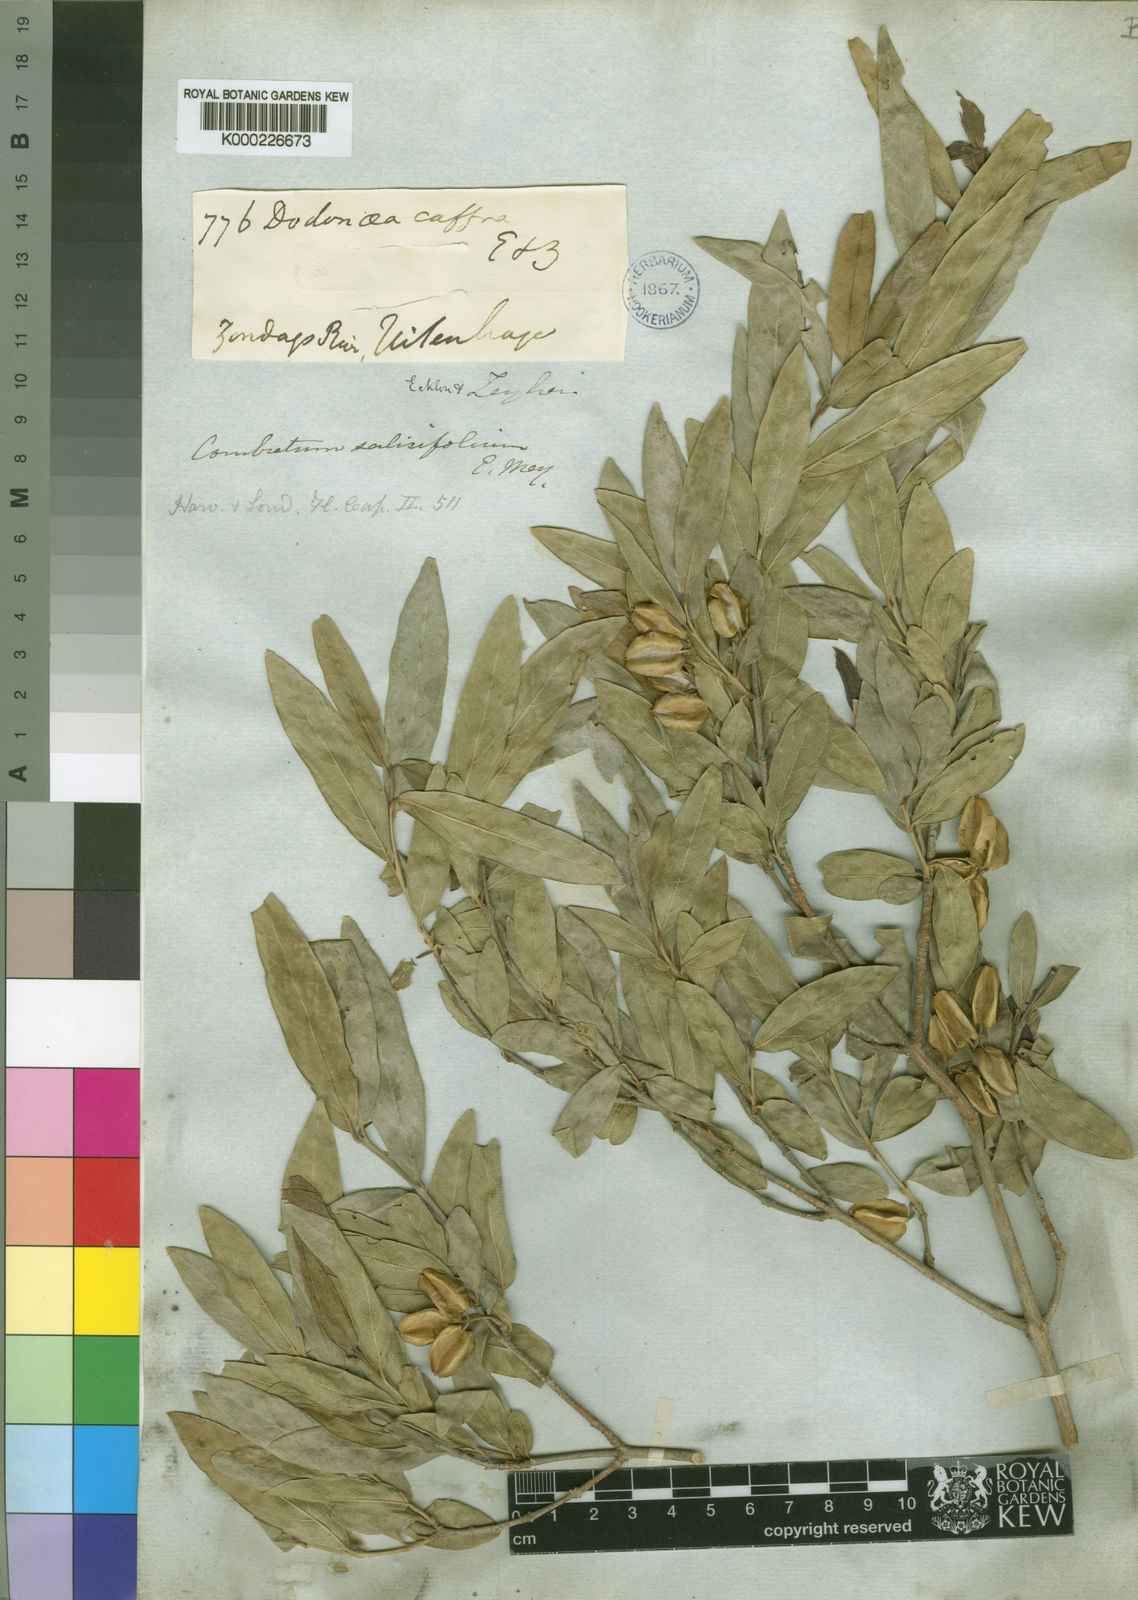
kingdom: Plantae
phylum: Tracheophyta
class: Magnoliopsida
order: Myrtales
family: Combretaceae
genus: Combretum
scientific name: Combretum caffrum
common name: Cape bushwillow
